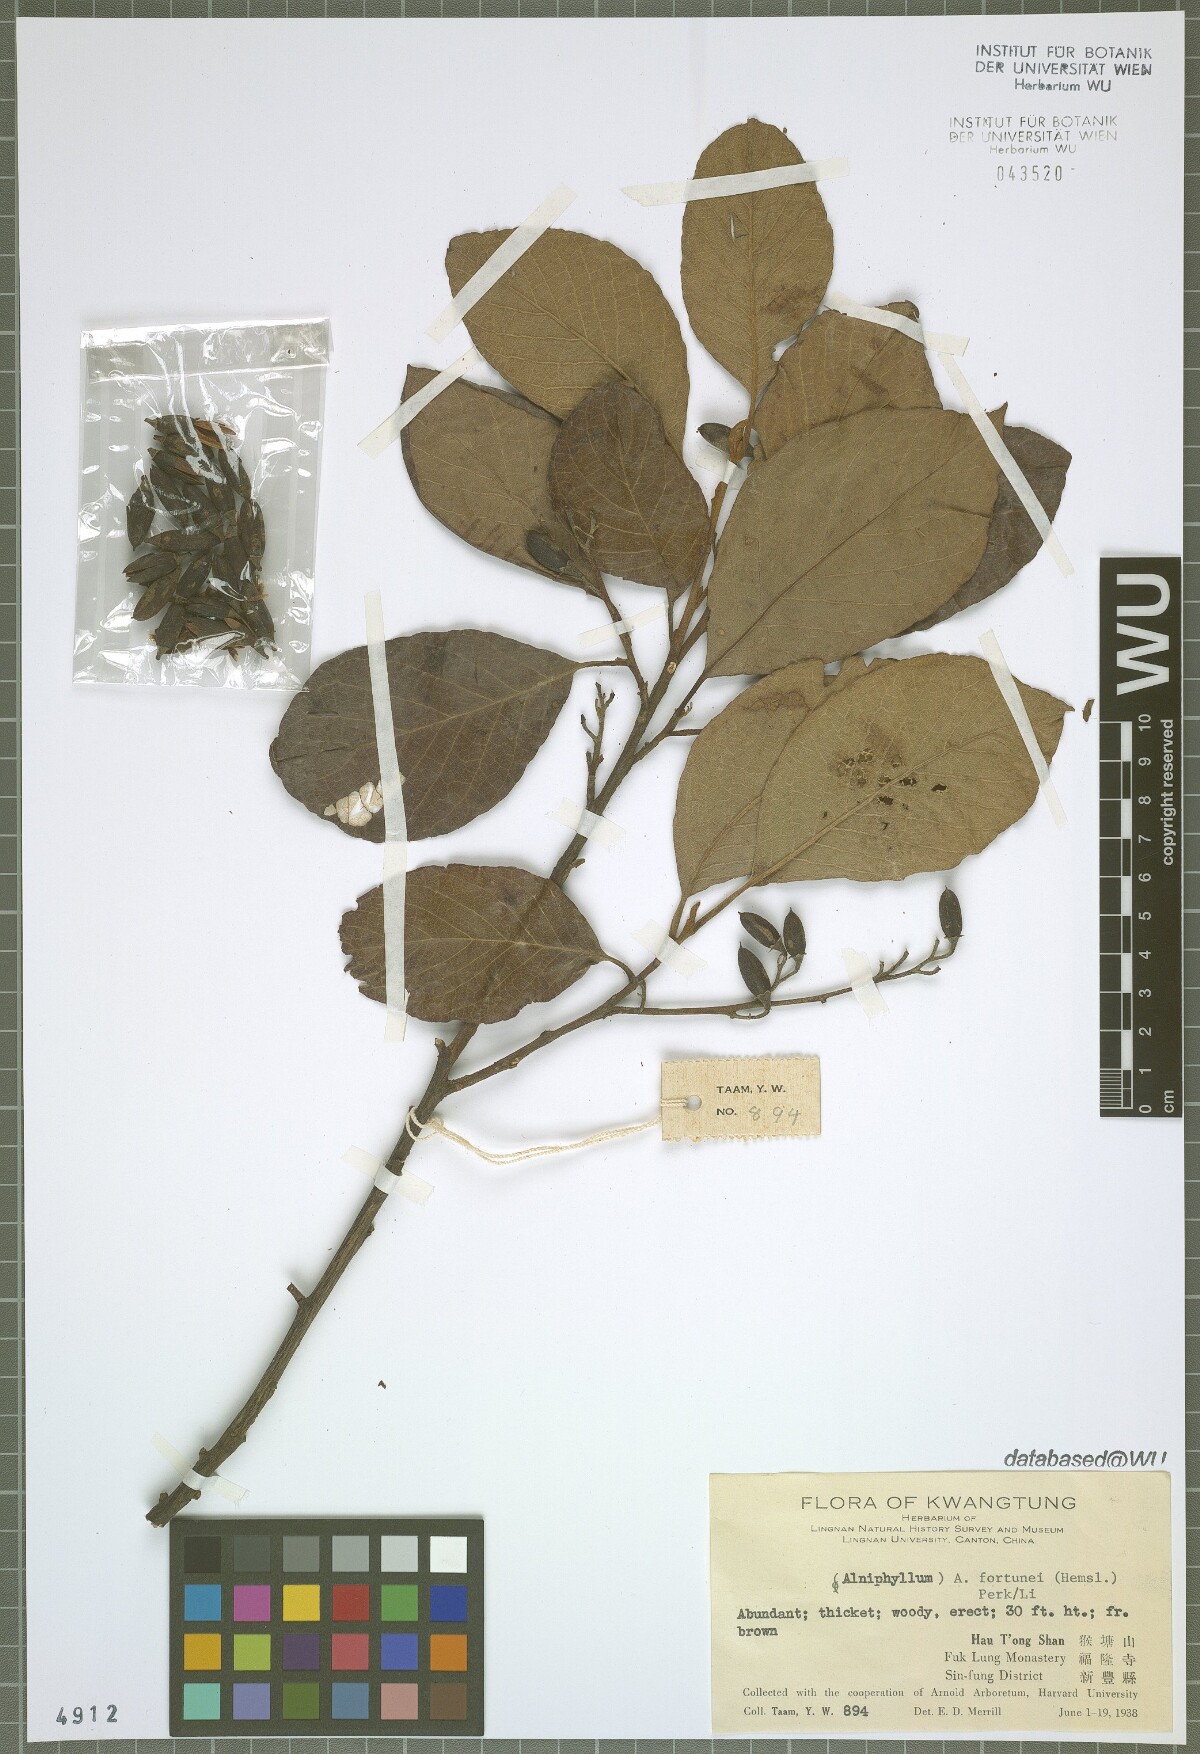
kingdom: Plantae
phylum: Tracheophyta
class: Magnoliopsida
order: Ericales
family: Styracaceae
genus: Alniphyllum
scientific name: Alniphyllum fortunei
